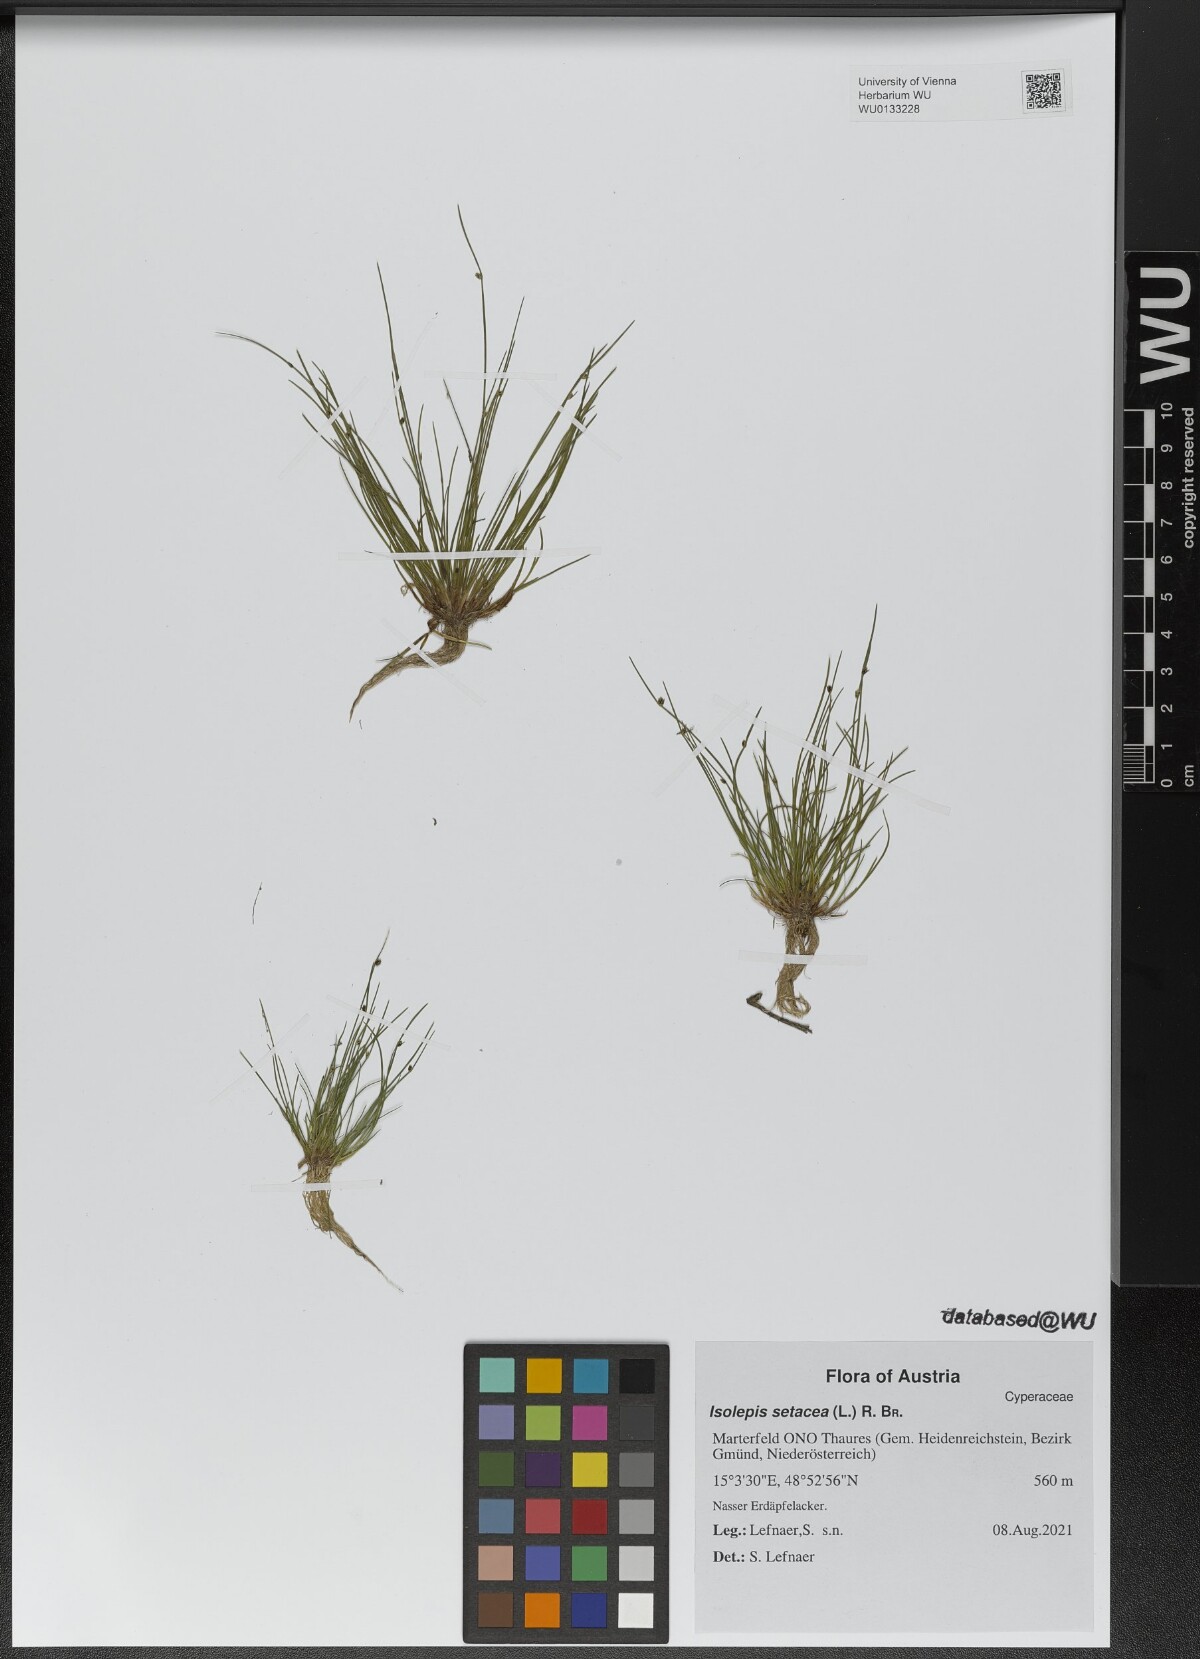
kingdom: Plantae
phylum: Tracheophyta
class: Liliopsida
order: Poales
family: Cyperaceae
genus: Isolepis
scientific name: Isolepis setacea
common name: Bristle club-rush
